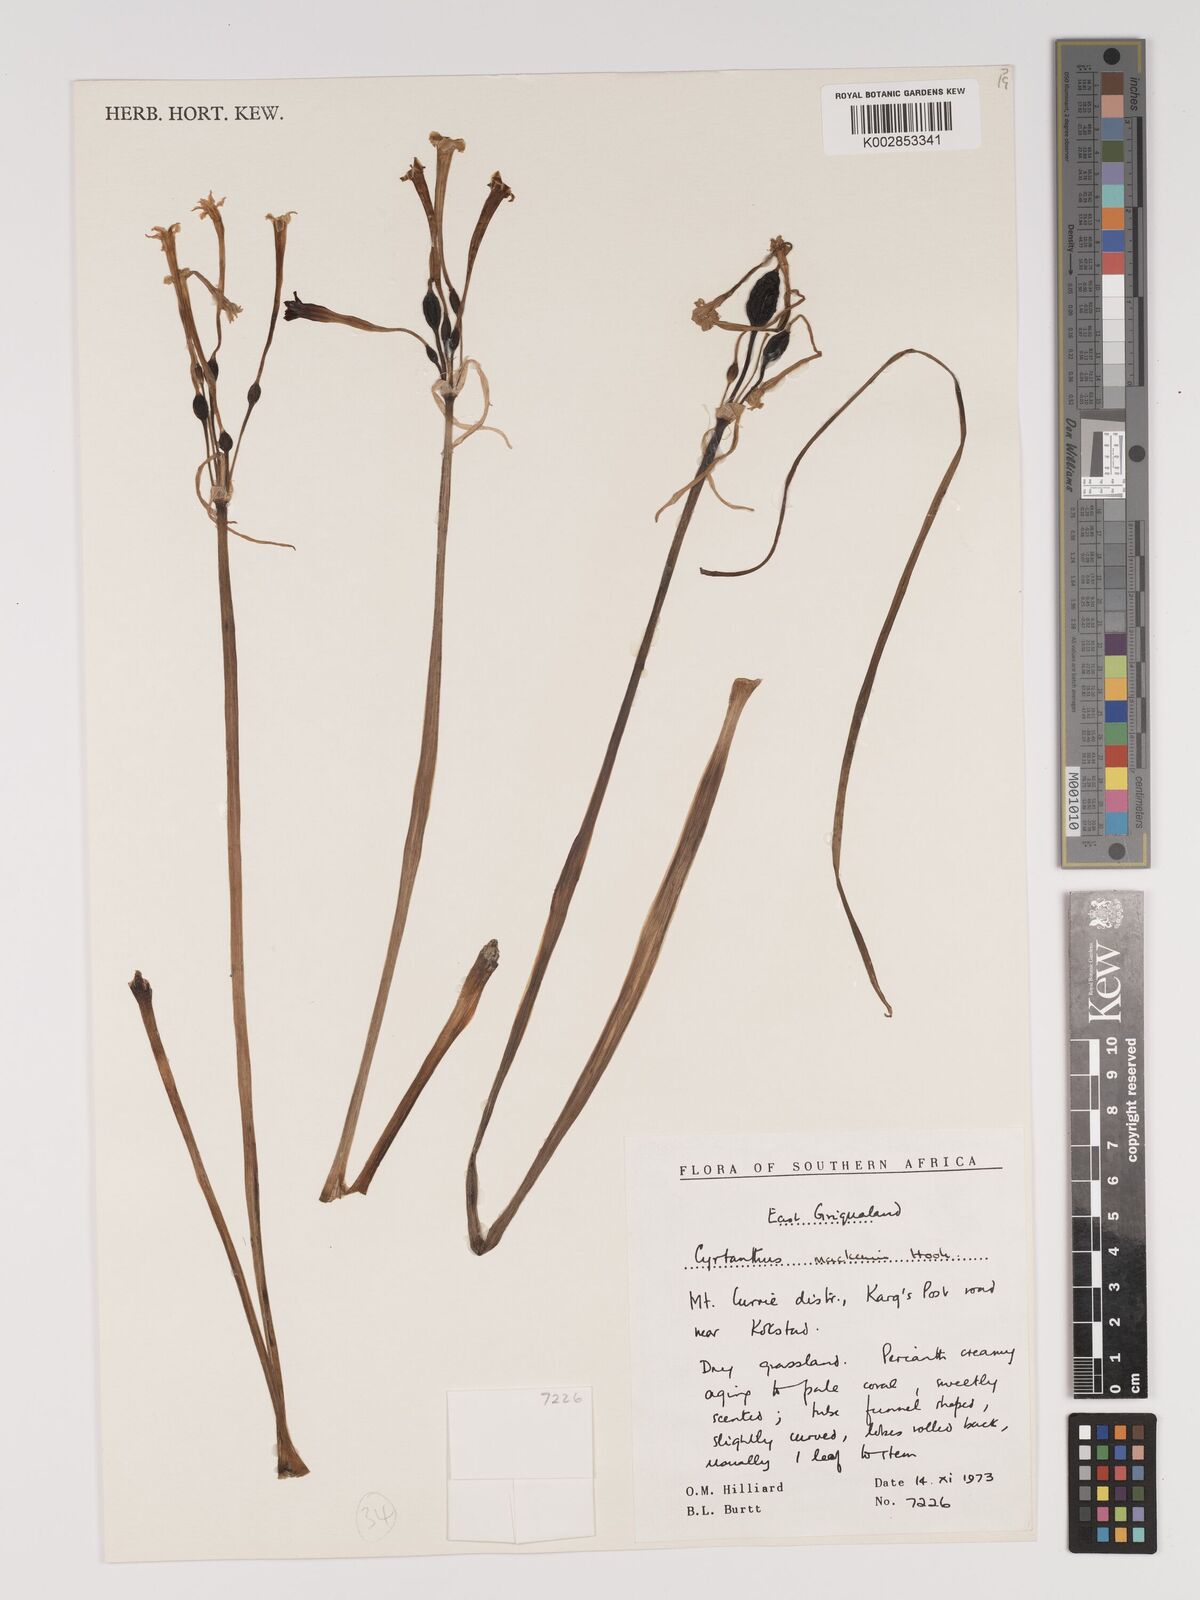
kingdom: Plantae
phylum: Tracheophyta
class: Liliopsida
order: Asparagales
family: Amaryllidaceae
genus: Cyrtanthus
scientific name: Cyrtanthus mackenii
